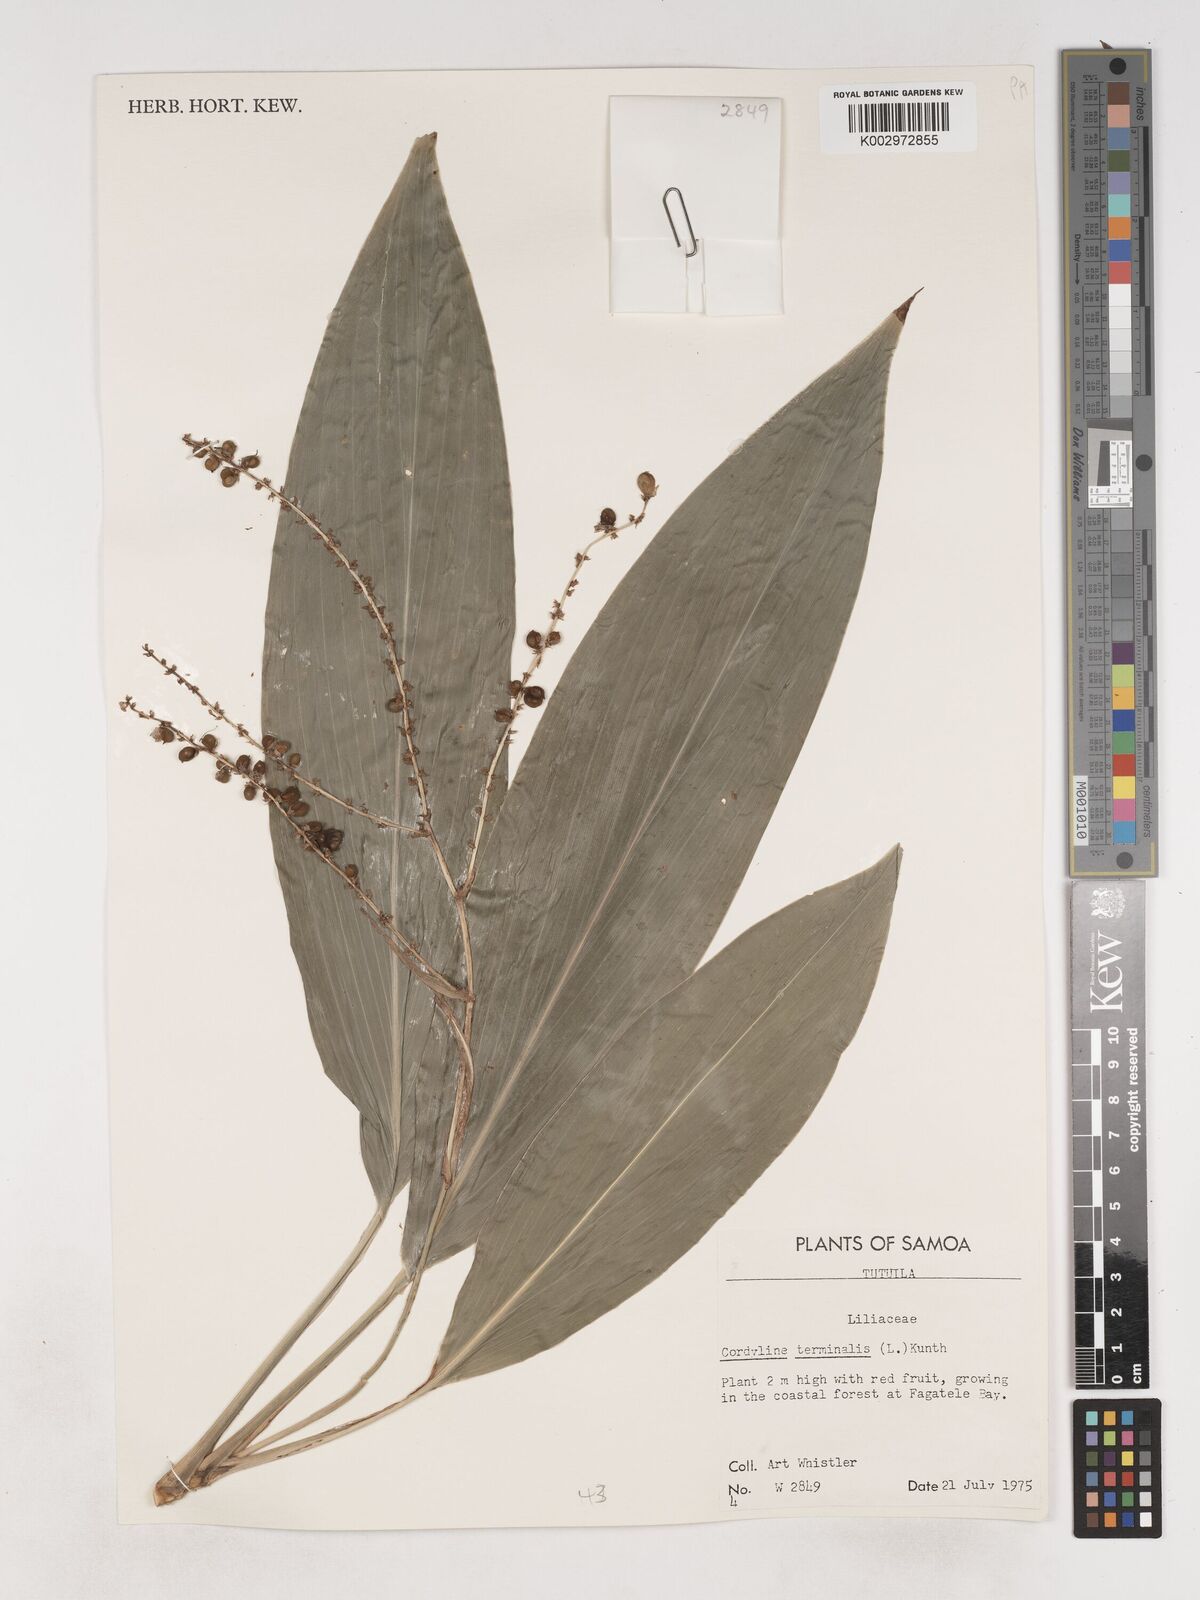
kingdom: Plantae
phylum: Tracheophyta
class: Liliopsida
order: Asparagales
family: Asparagaceae
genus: Cordyline
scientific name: Cordyline fruticosa
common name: Good-luck-plant
